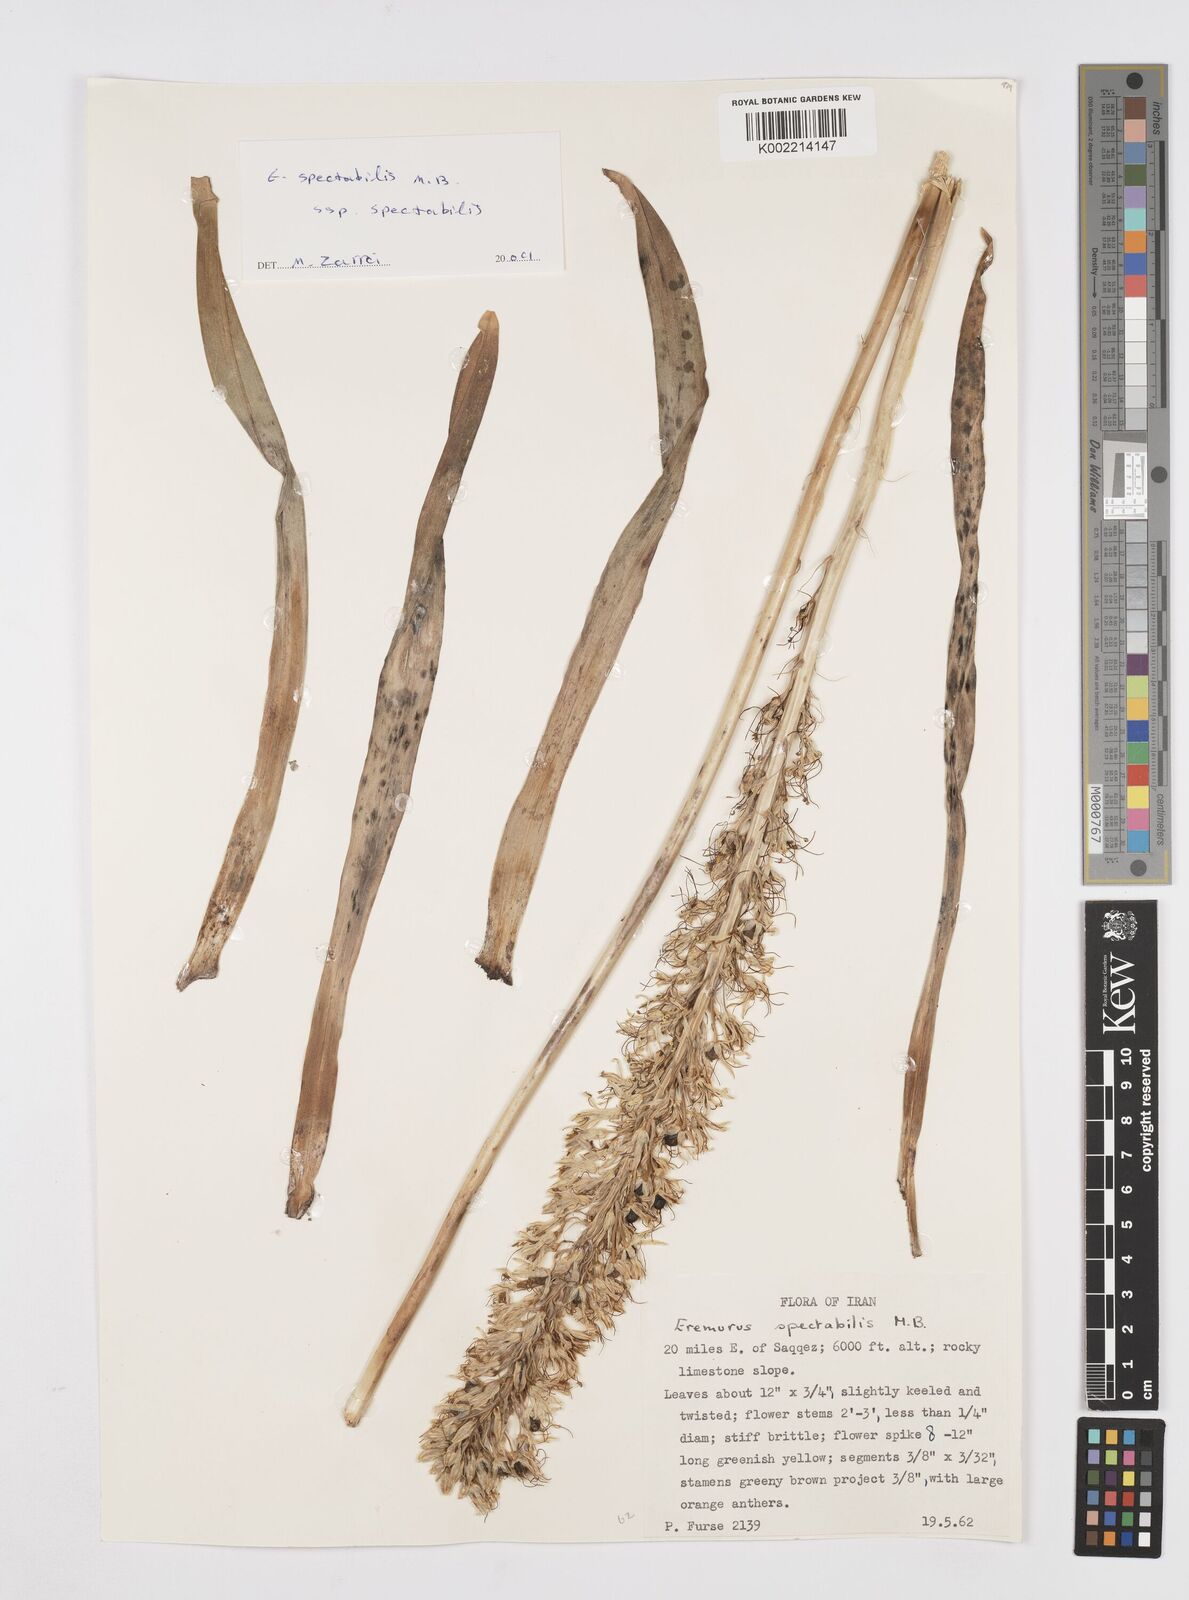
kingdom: Plantae
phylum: Tracheophyta
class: Liliopsida
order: Asparagales
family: Asphodelaceae
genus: Eremurus
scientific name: Eremurus spectabilis
